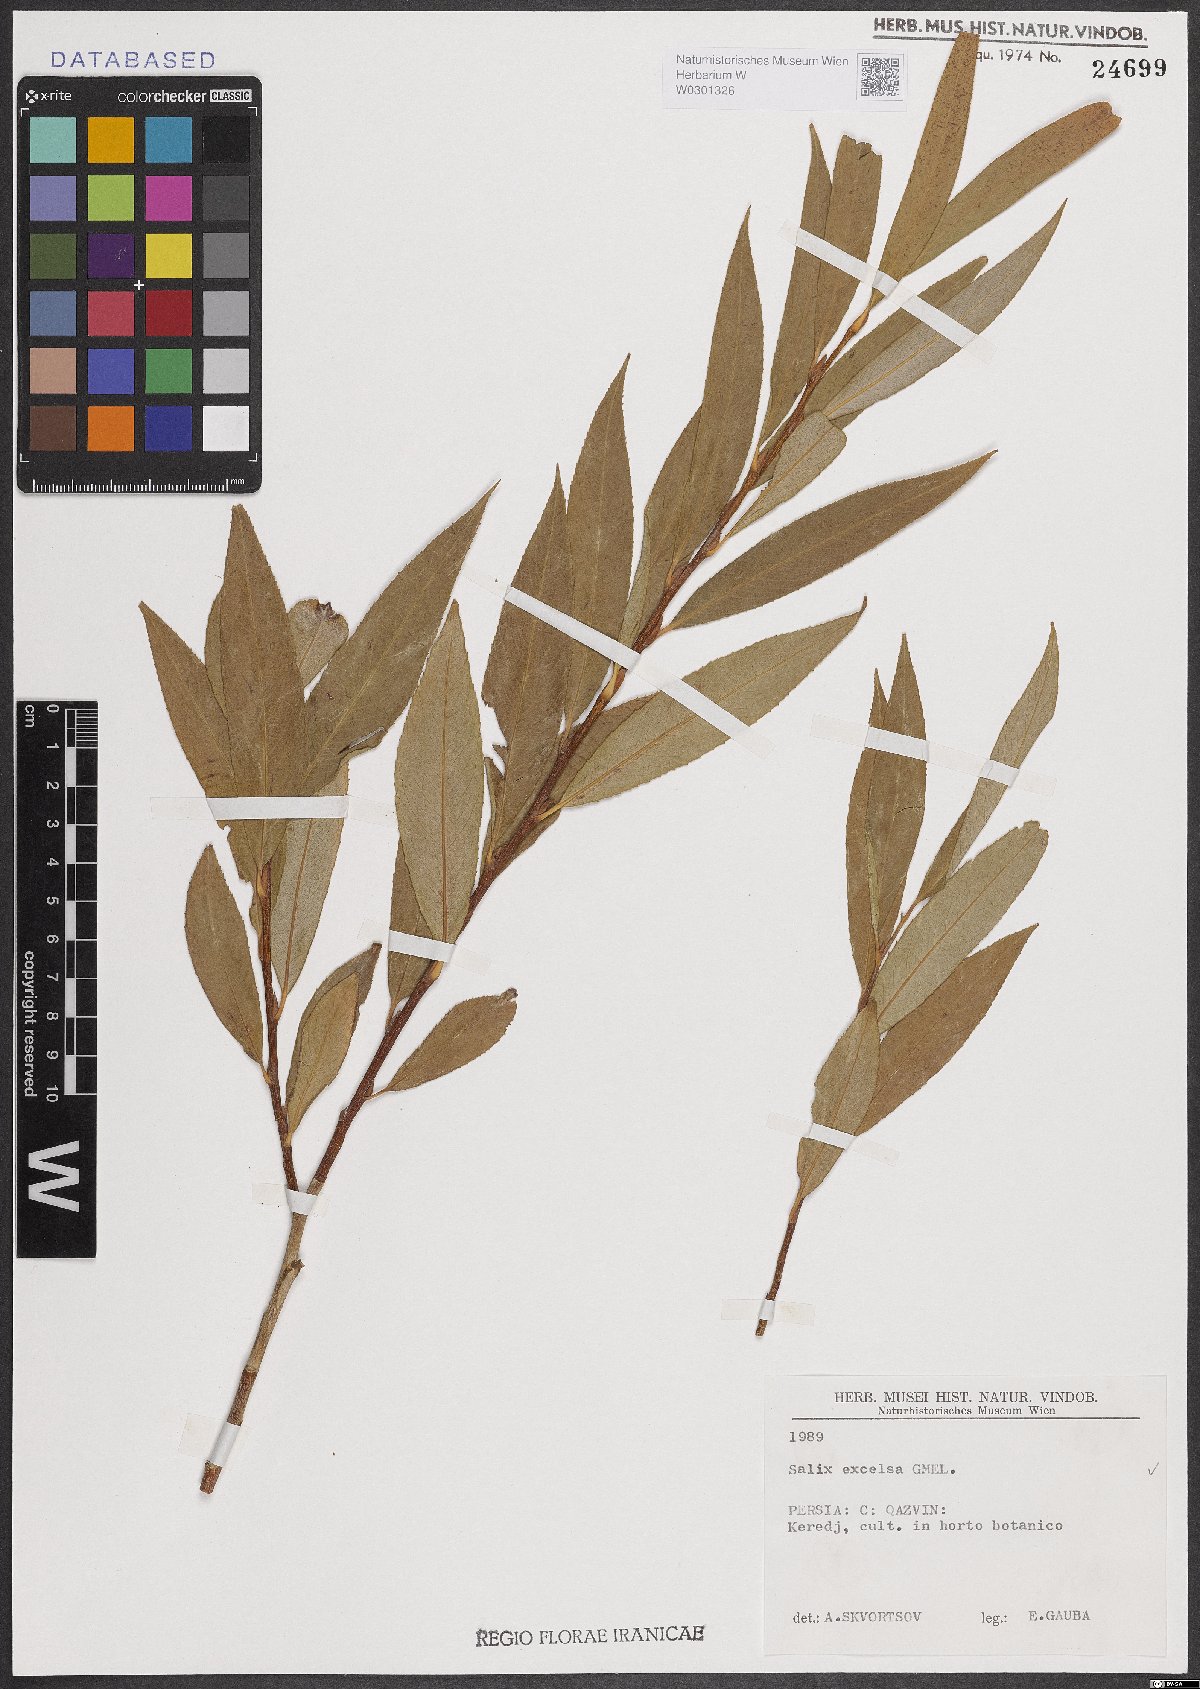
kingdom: Plantae
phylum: Tracheophyta
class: Magnoliopsida
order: Malpighiales
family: Salicaceae
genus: Salix
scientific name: Salix excelsa
